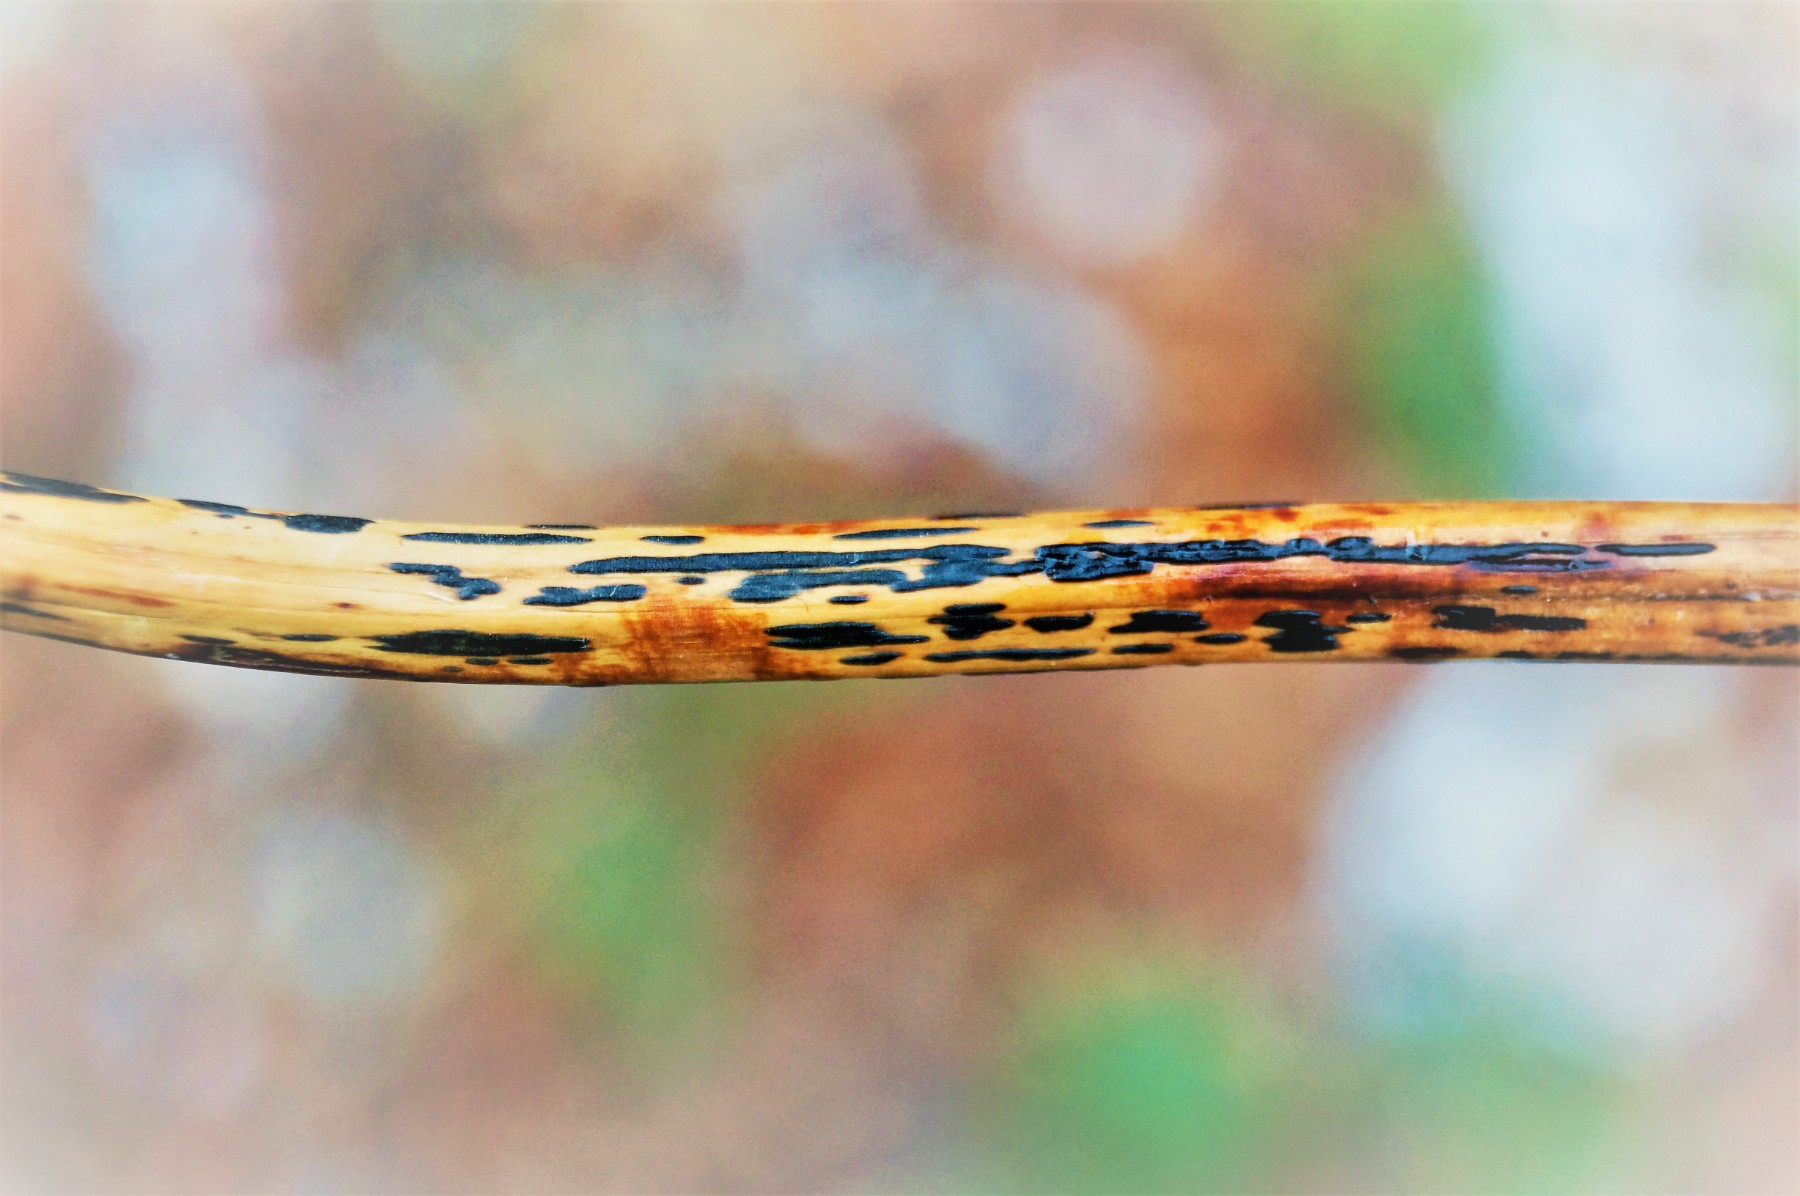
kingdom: Fungi
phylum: Ascomycota
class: Dothideomycetes
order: Pleosporales
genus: Rhopographus
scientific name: Rhopographus filicinus
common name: Bracken map
